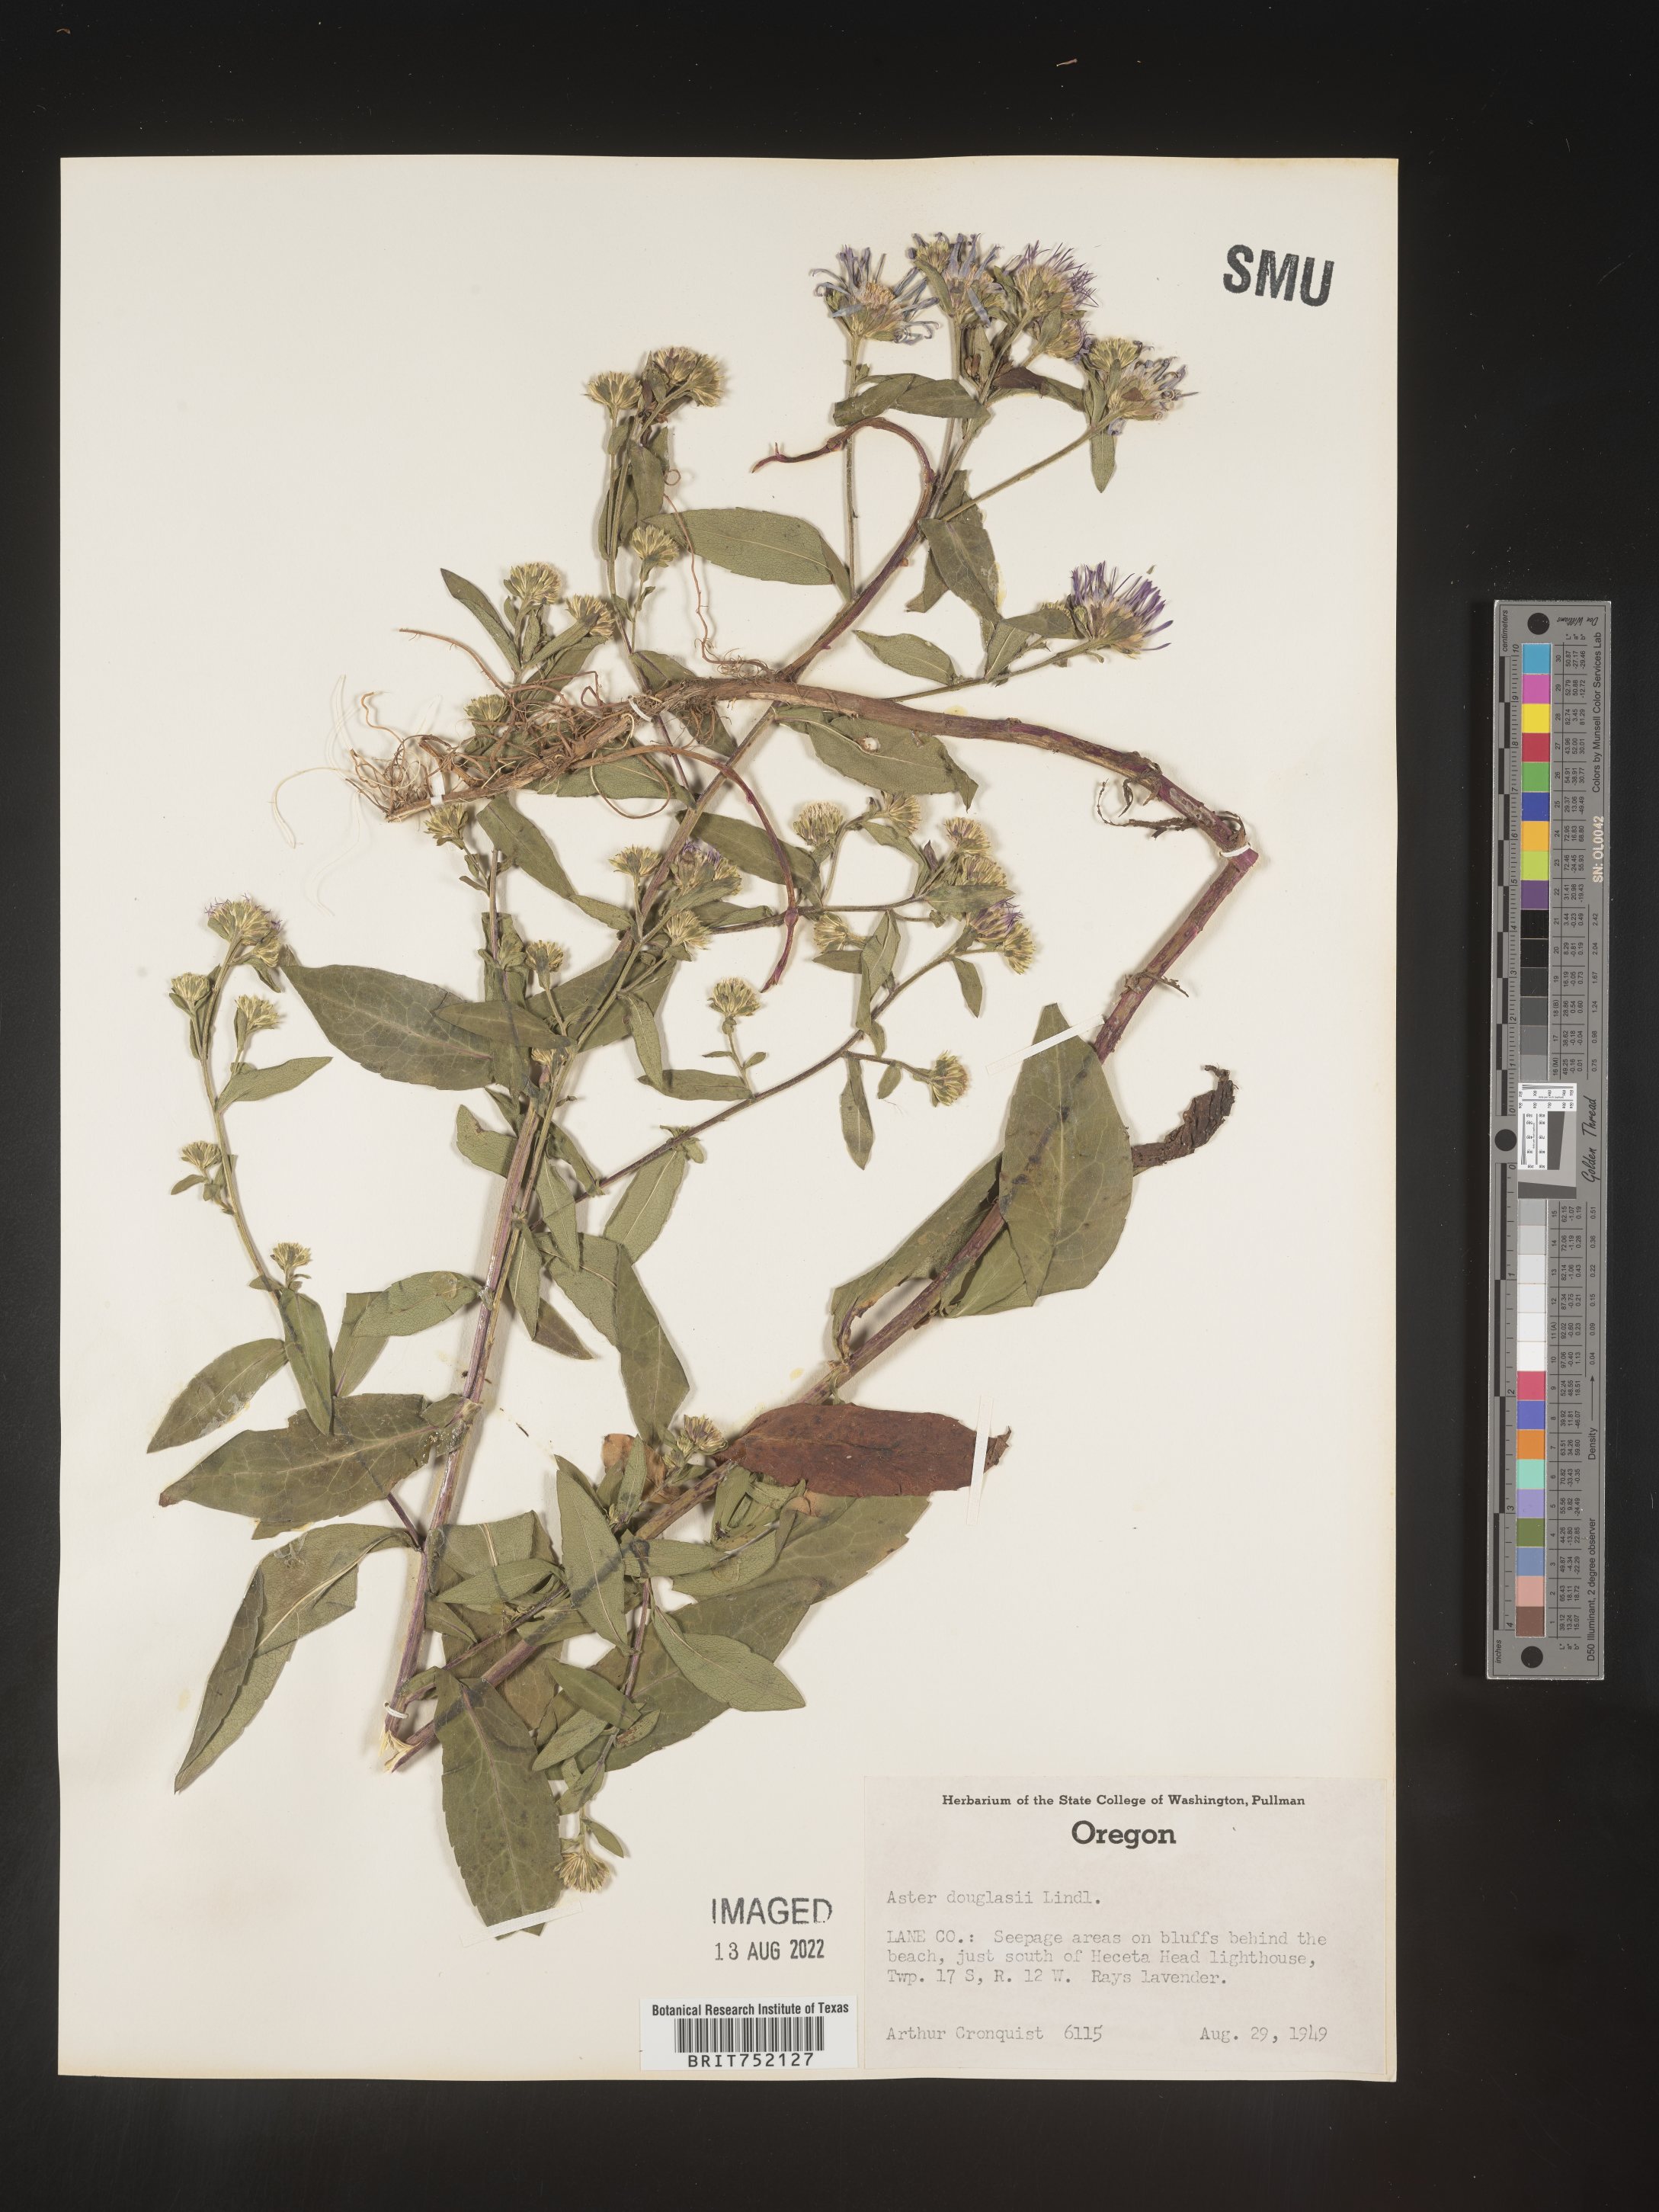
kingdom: Plantae
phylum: Tracheophyta
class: Magnoliopsida
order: Asterales
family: Asteraceae
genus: Symphyotrichum
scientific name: Symphyotrichum bracteolatum
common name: Eaton's aster
